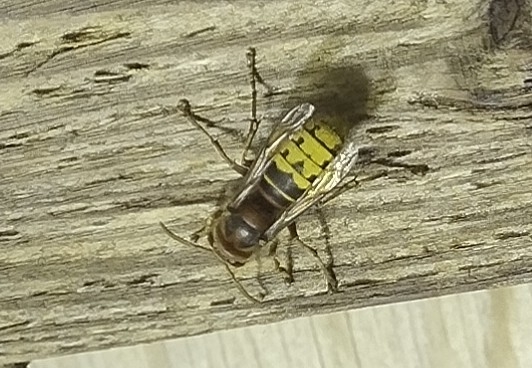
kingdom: Animalia
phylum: Arthropoda
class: Insecta
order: Hymenoptera
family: Vespidae
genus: Vespa
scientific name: Vespa crabro
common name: Stor gedehams
